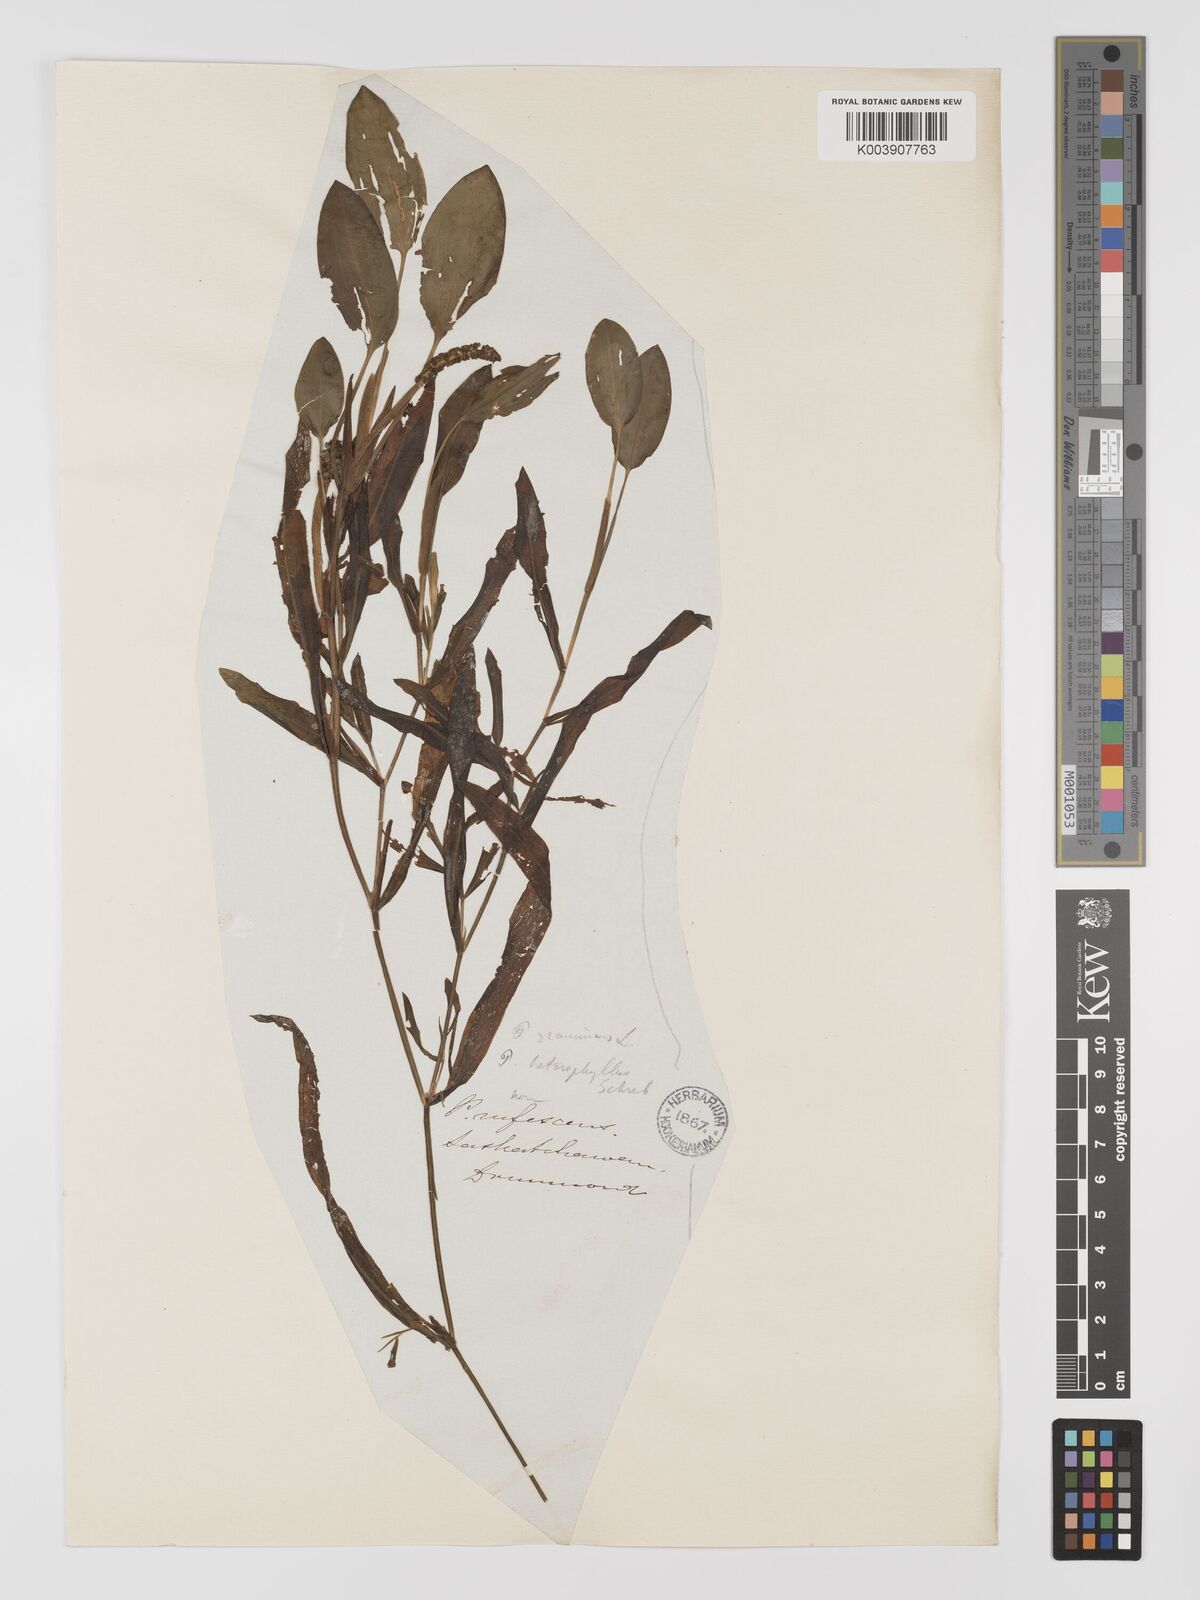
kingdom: Plantae
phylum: Tracheophyta
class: Liliopsida
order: Alismatales
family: Potamogetonaceae
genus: Potamogeton
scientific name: Potamogeton gramineus
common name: Various-leaved pondweed
